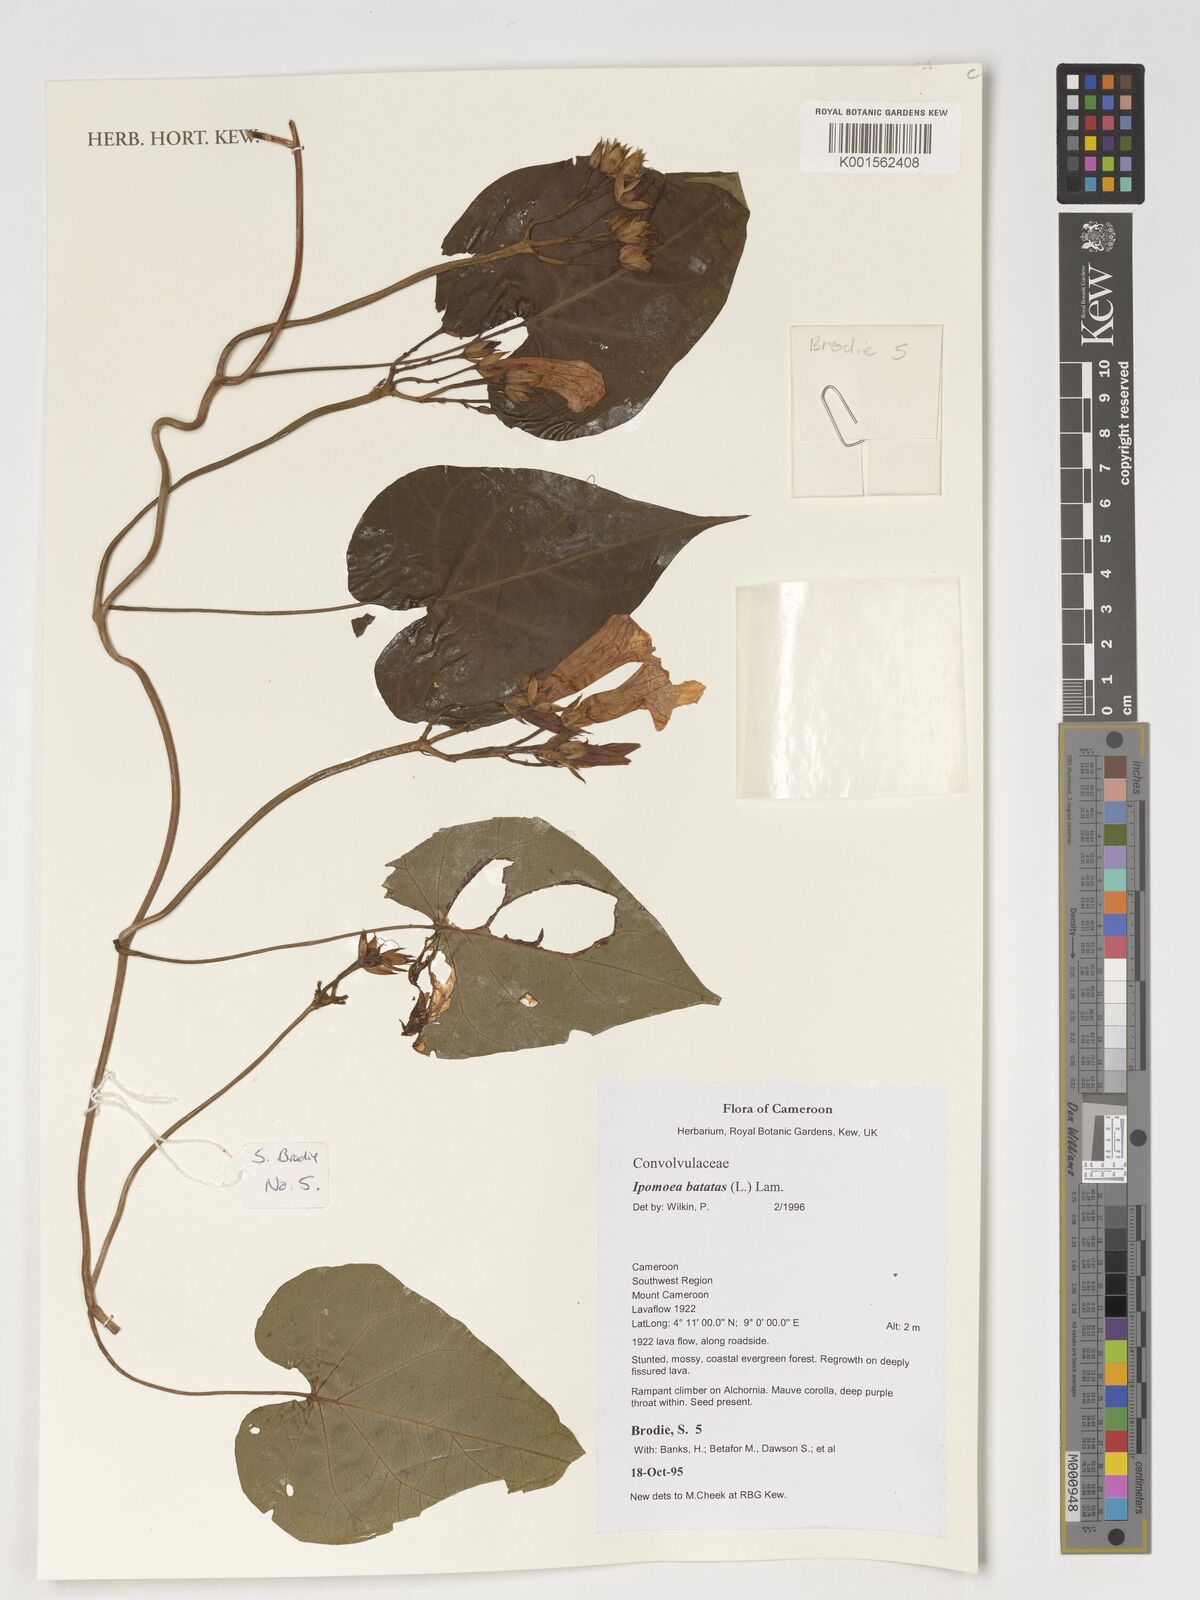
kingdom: Plantae
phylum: Tracheophyta
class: Magnoliopsida
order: Solanales
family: Convolvulaceae
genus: Ipomoea
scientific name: Ipomoea batatas
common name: Sweet-potato
